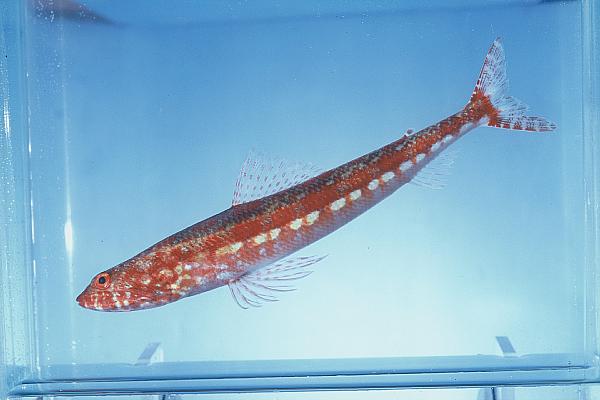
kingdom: Animalia
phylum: Chordata
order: Aulopiformes
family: Synodontidae
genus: Synodus
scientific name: Synodus variegatus
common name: Variegated lizardfish
